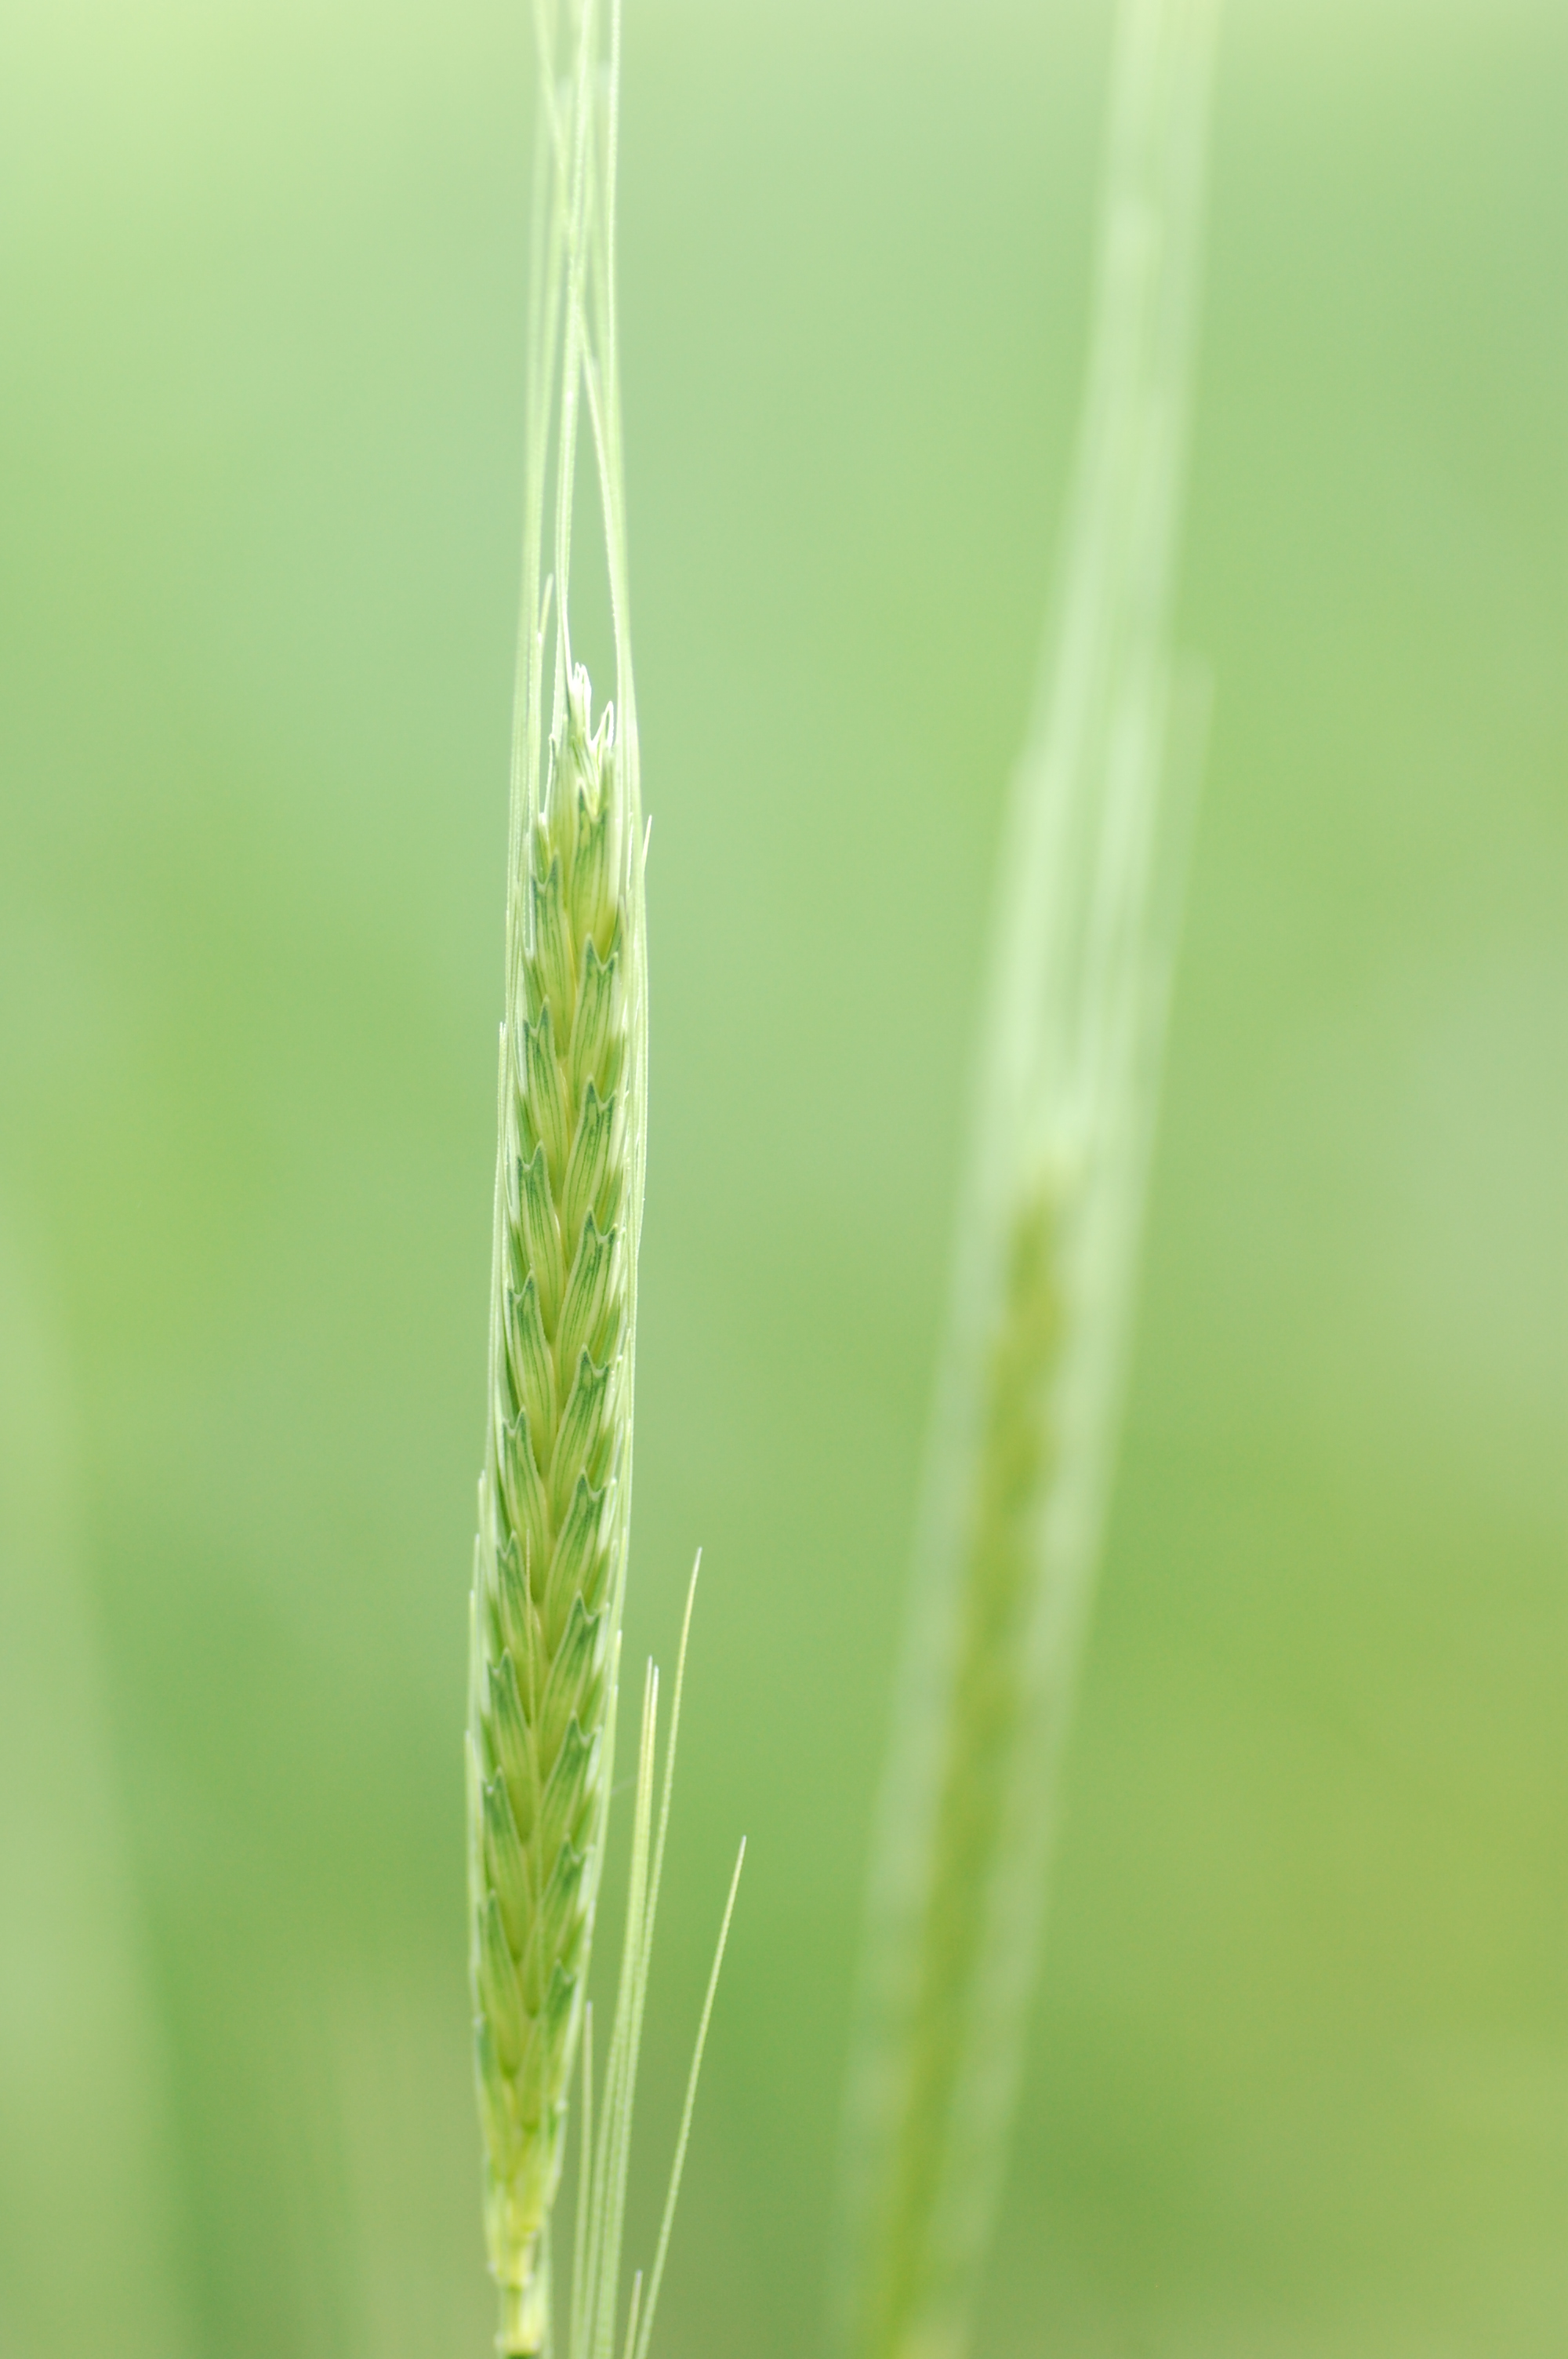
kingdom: Plantae
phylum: Tracheophyta
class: Liliopsida
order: Poales
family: Poaceae
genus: Triticum
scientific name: Triticum monococcum
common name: Einkorn
